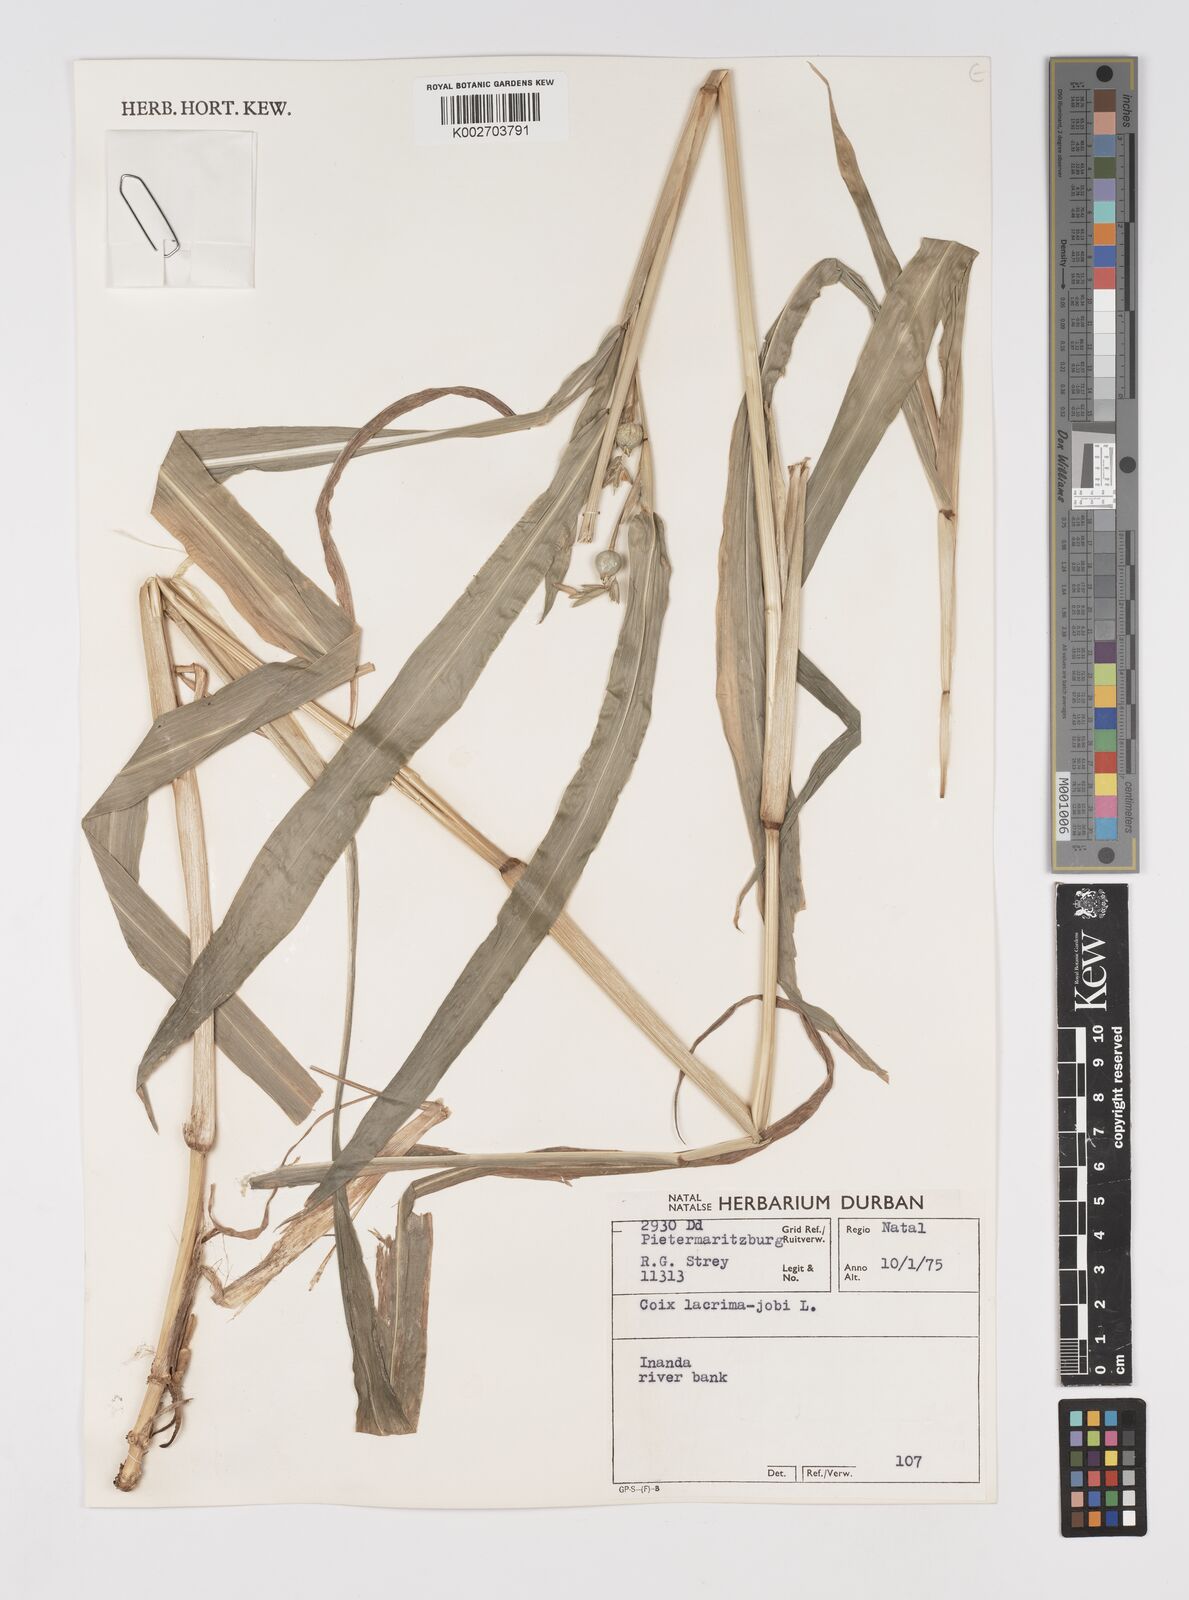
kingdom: Plantae
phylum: Tracheophyta
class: Liliopsida
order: Poales
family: Poaceae
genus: Coix
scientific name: Coix lacryma-jobi
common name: Job's tears
